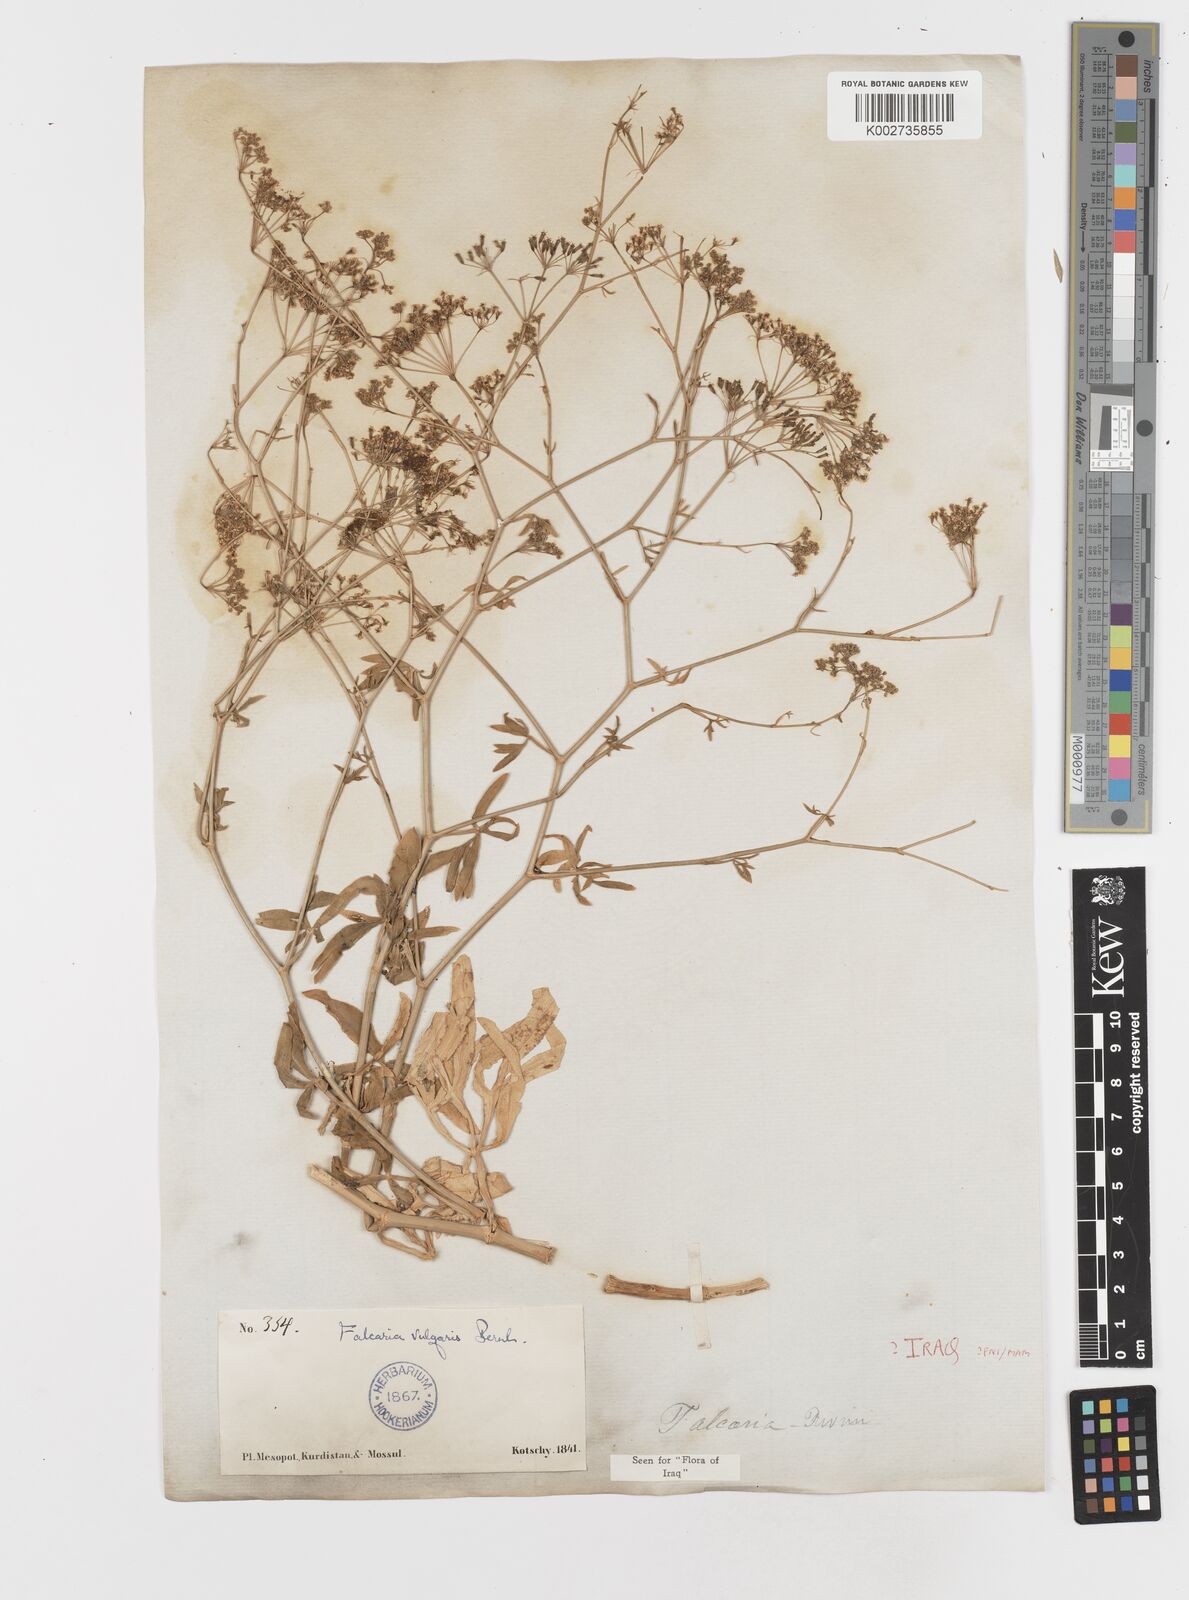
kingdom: Plantae
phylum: Tracheophyta
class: Magnoliopsida
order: Apiales
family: Apiaceae
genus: Falcaria
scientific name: Falcaria vulgaris
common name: Longleaf
